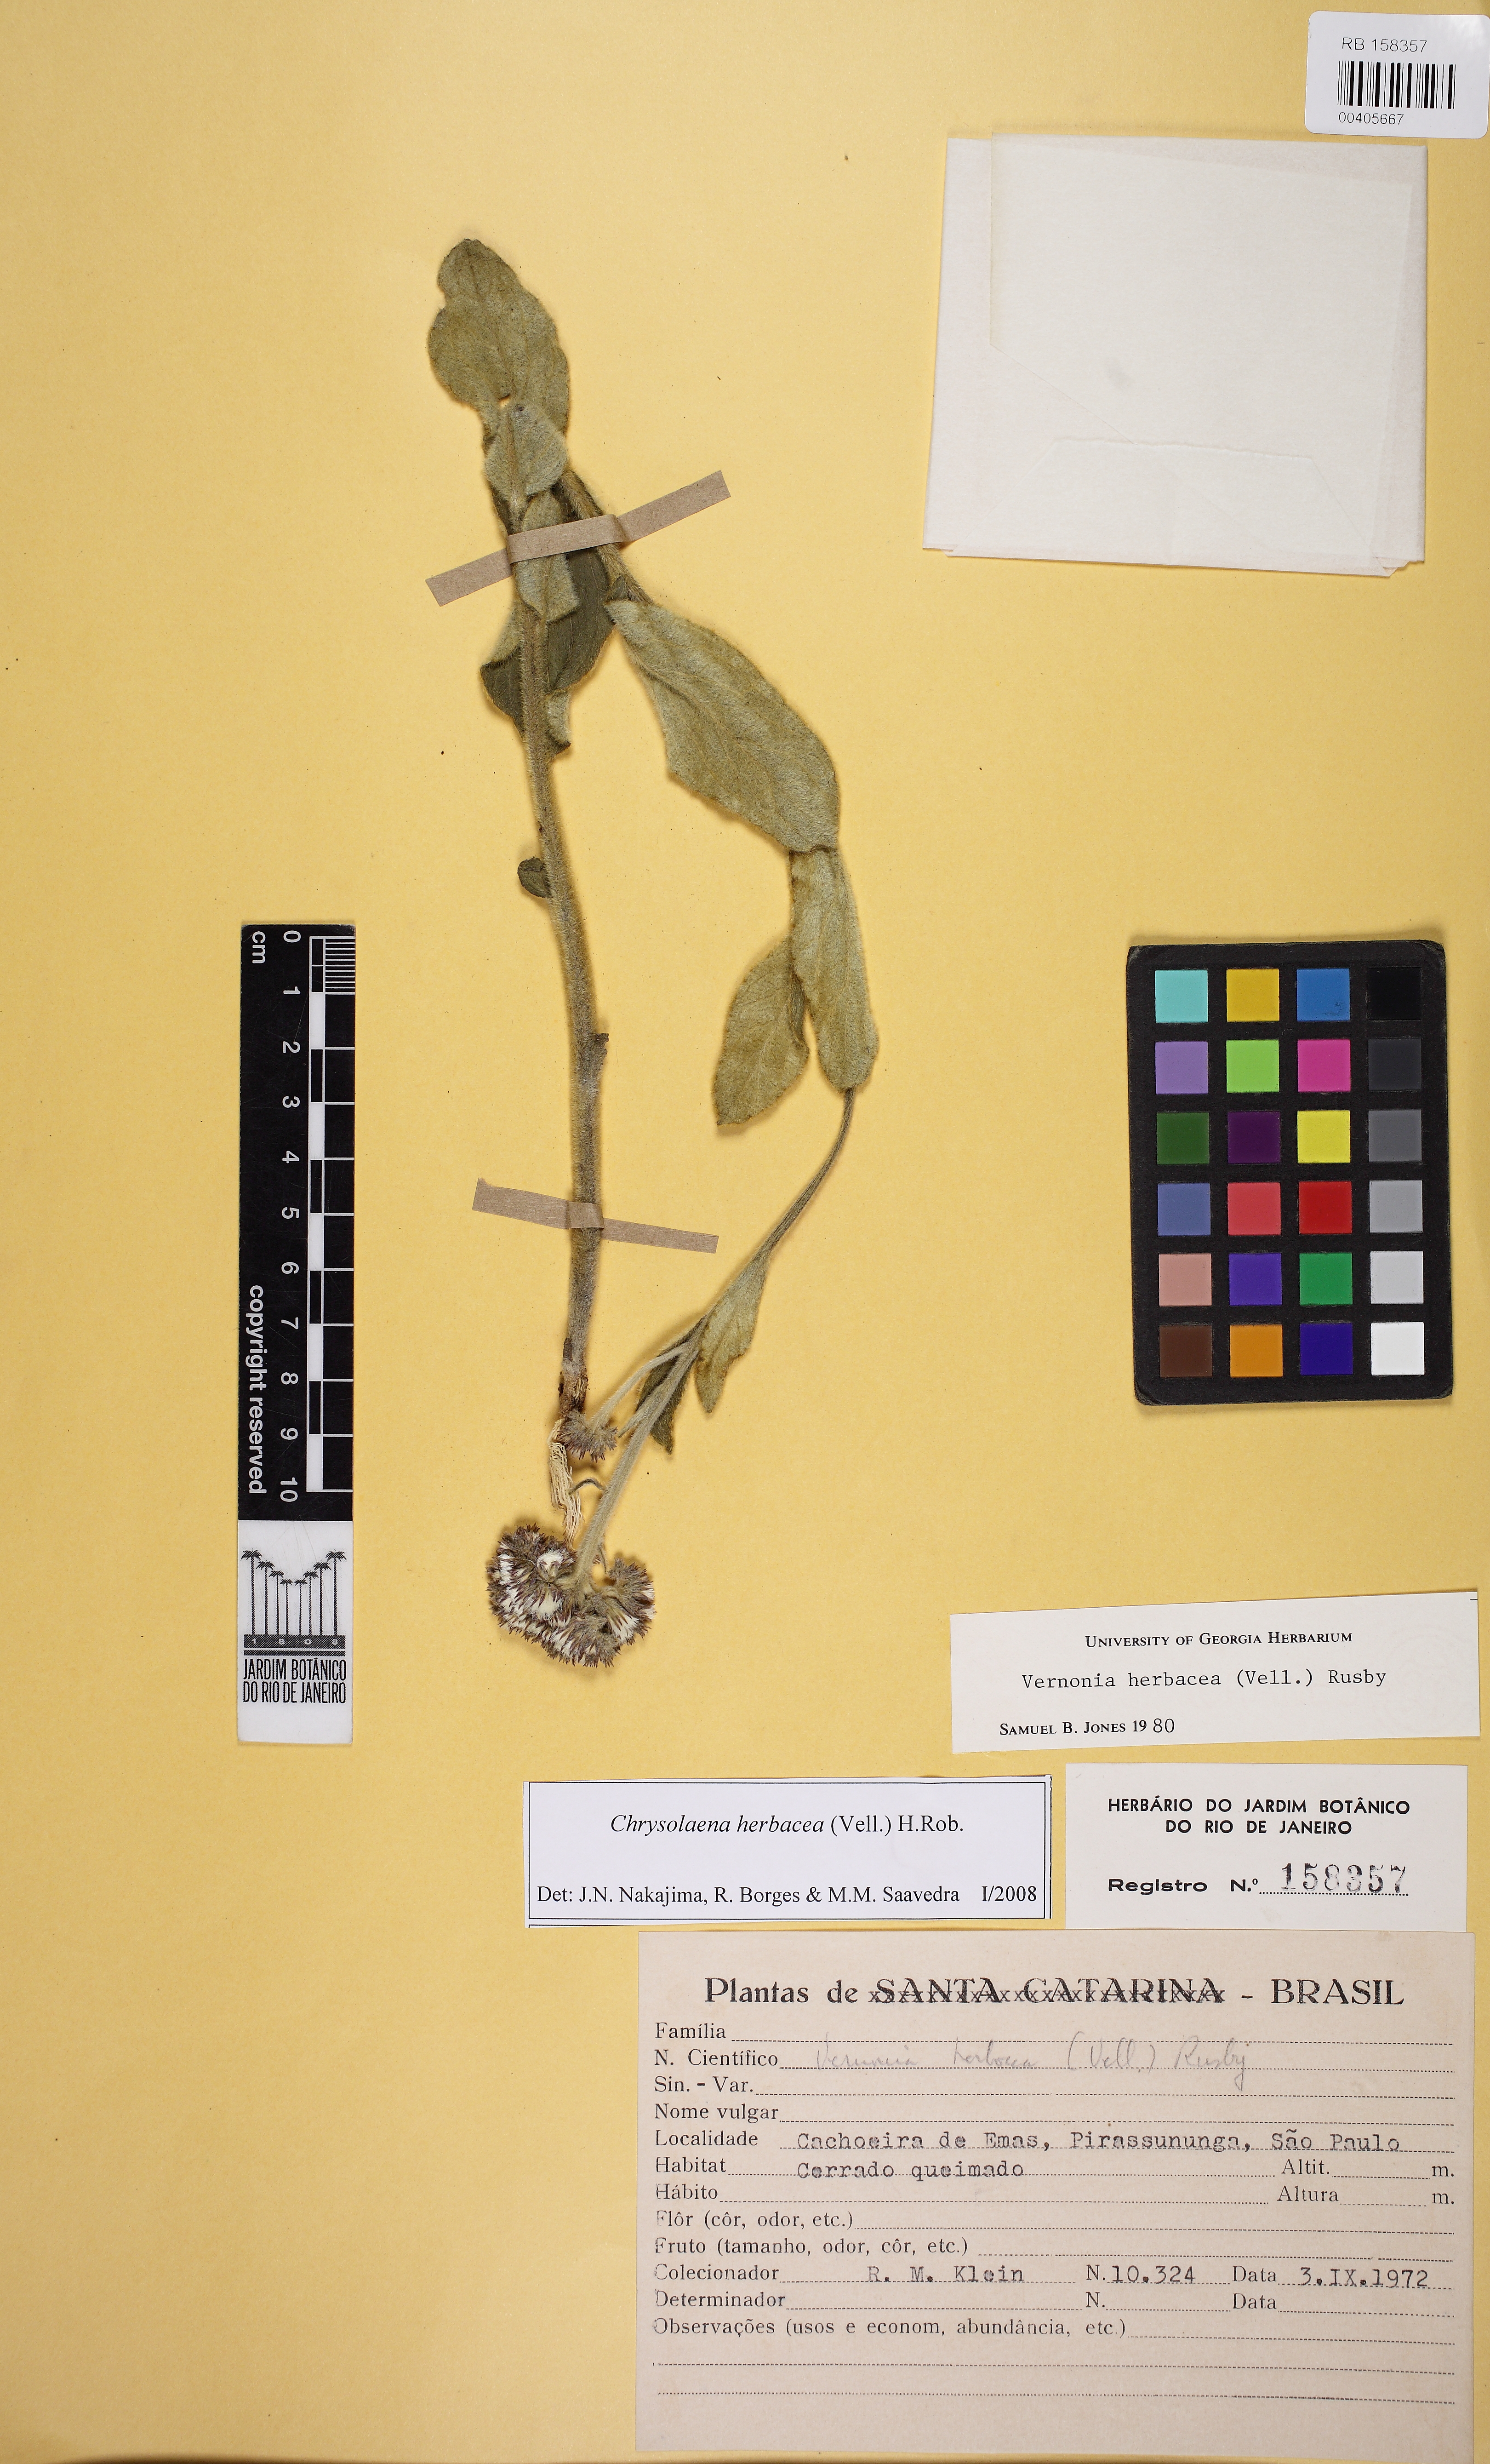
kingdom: Plantae
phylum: Tracheophyta
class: Magnoliopsida
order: Asterales
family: Asteraceae
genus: Chrysolaena
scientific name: Chrysolaena obovata
